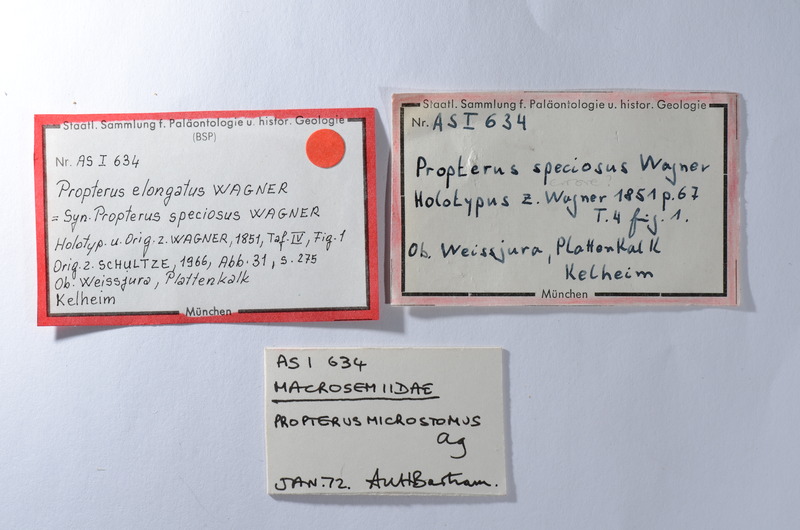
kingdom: Animalia
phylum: Chordata
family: Macrosemiidae
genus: Propterus
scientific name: Propterus elongatus
